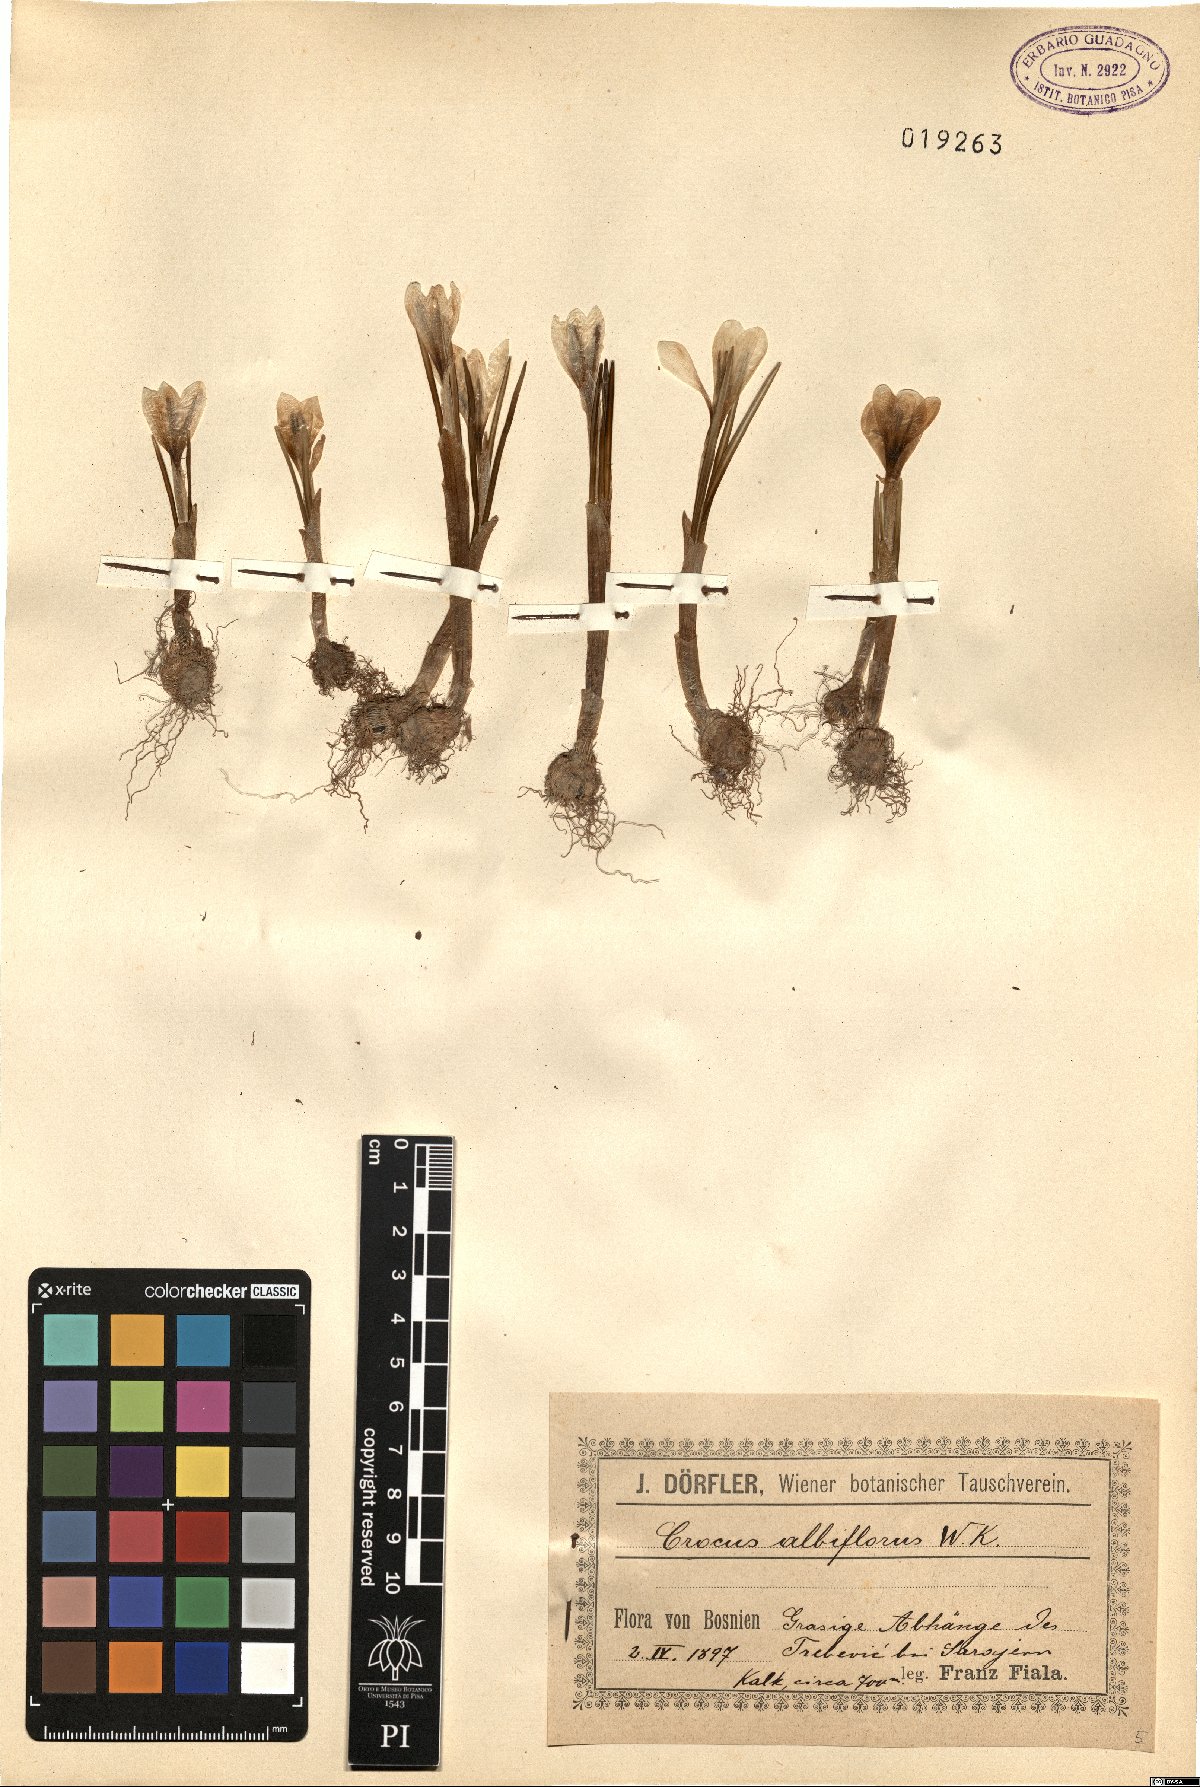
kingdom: Plantae
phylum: Tracheophyta
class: Liliopsida
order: Asparagales
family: Iridaceae
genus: Crocus
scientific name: Crocus vernus
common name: Spring crocus
